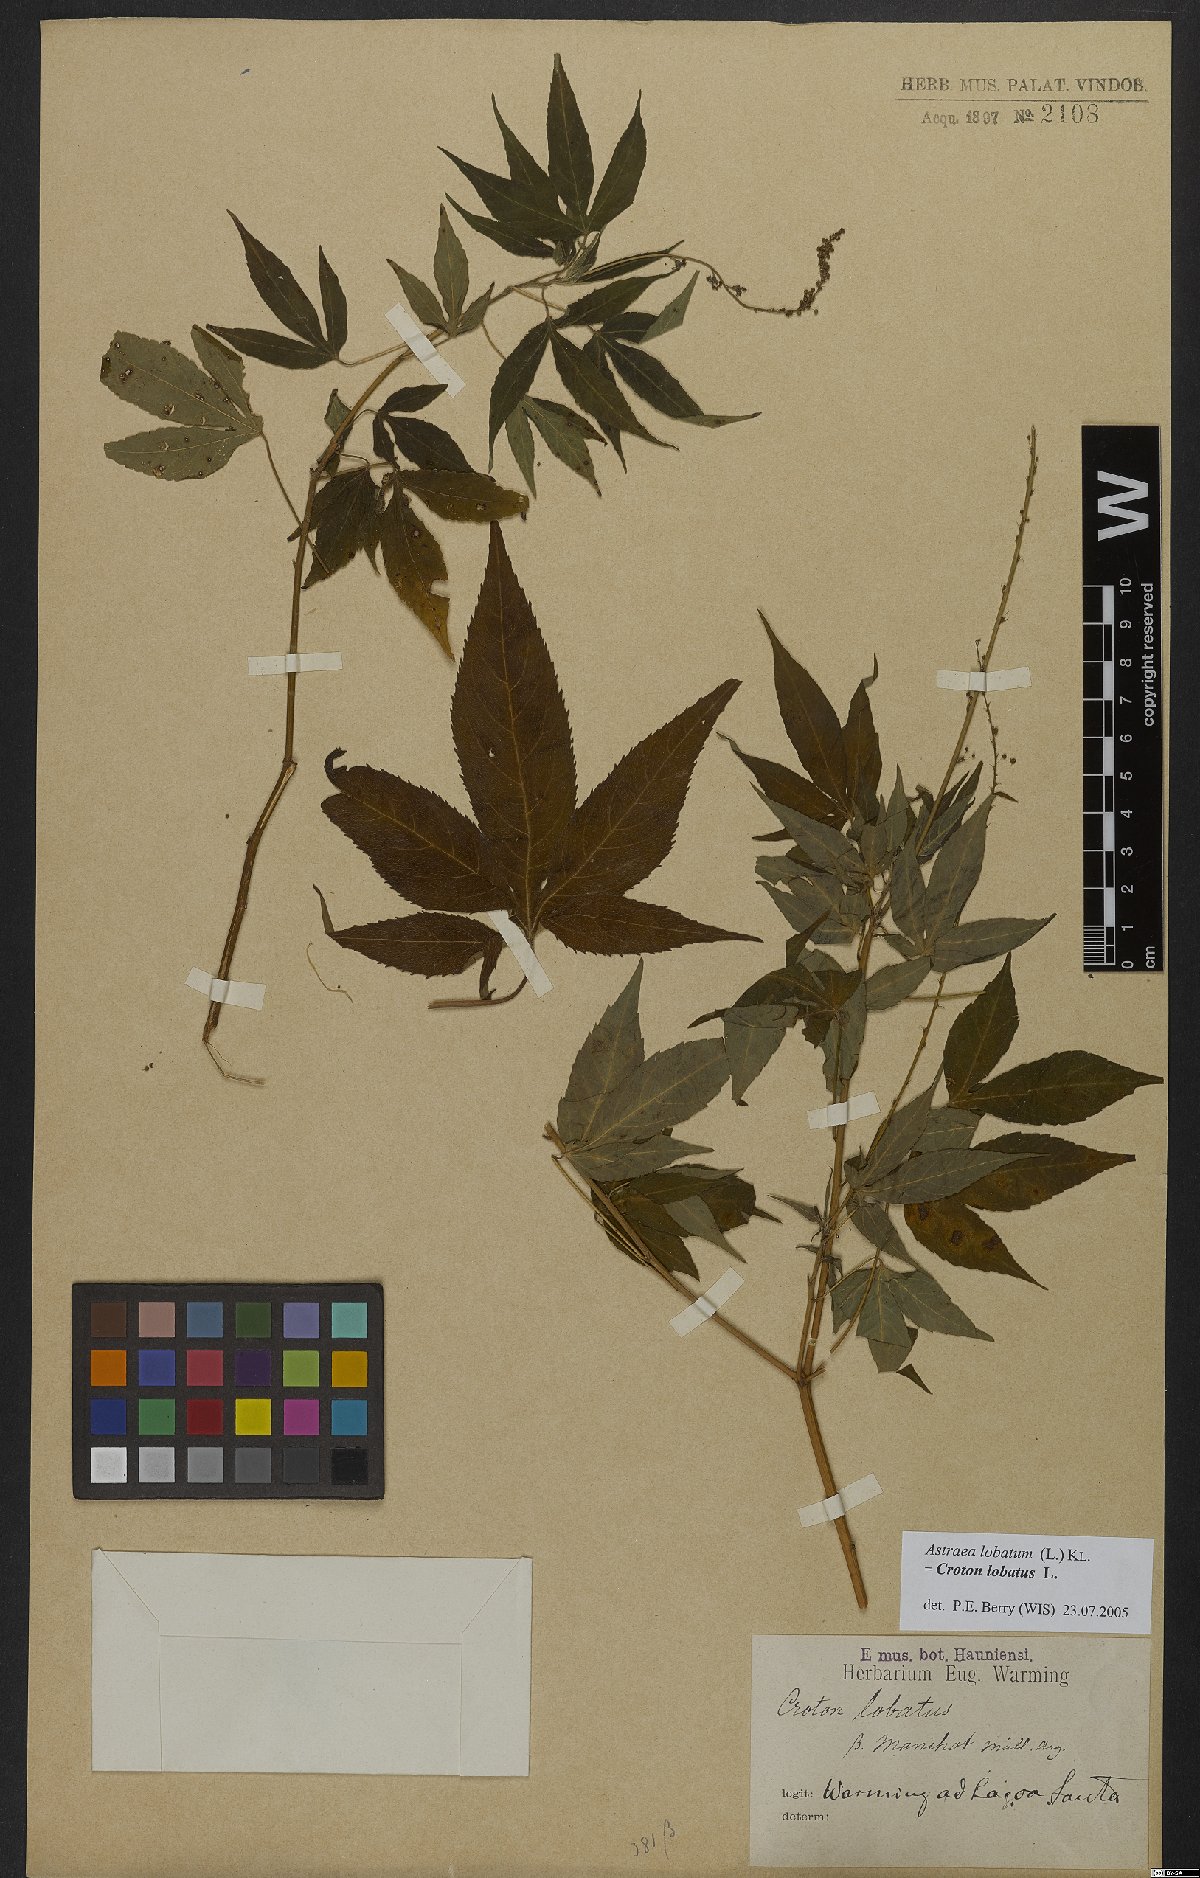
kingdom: Plantae
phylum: Tracheophyta
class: Magnoliopsida
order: Malpighiales
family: Euphorbiaceae
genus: Croton
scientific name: Croton lobatus
